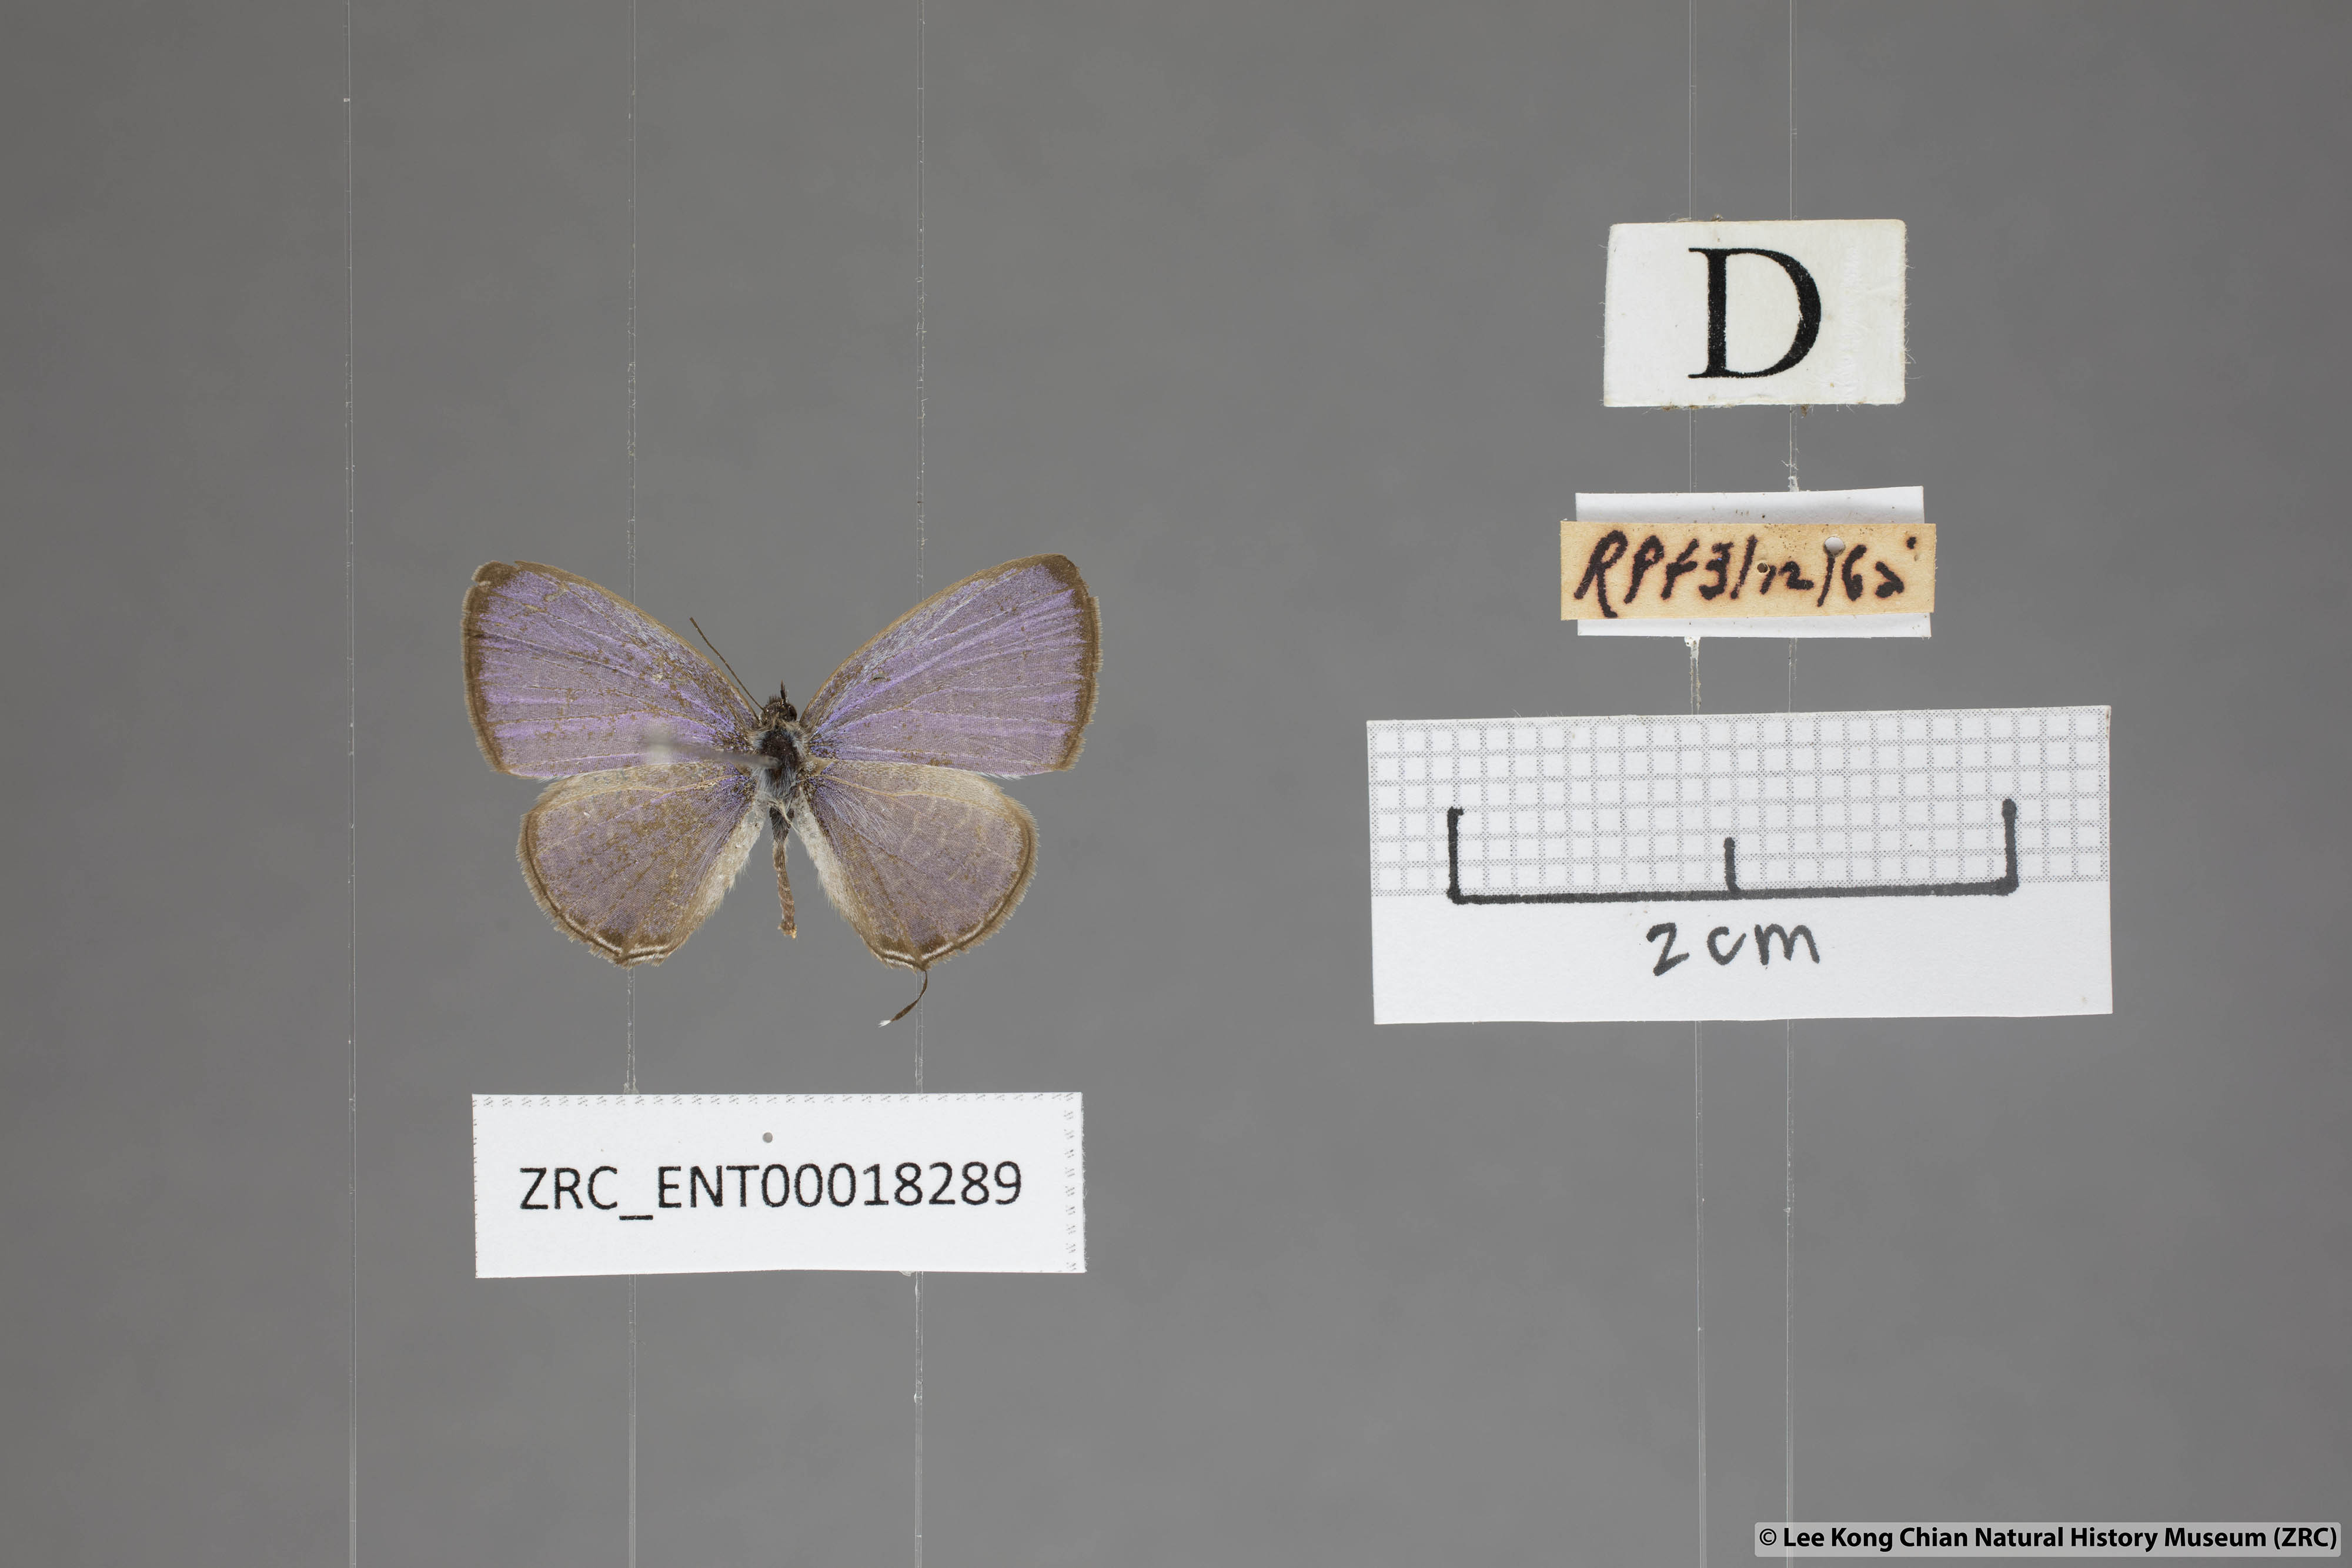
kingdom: Animalia
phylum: Arthropoda
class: Insecta
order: Lepidoptera
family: Lycaenidae
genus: Prosotas
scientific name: Prosotas aluta
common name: Barred lineblue
